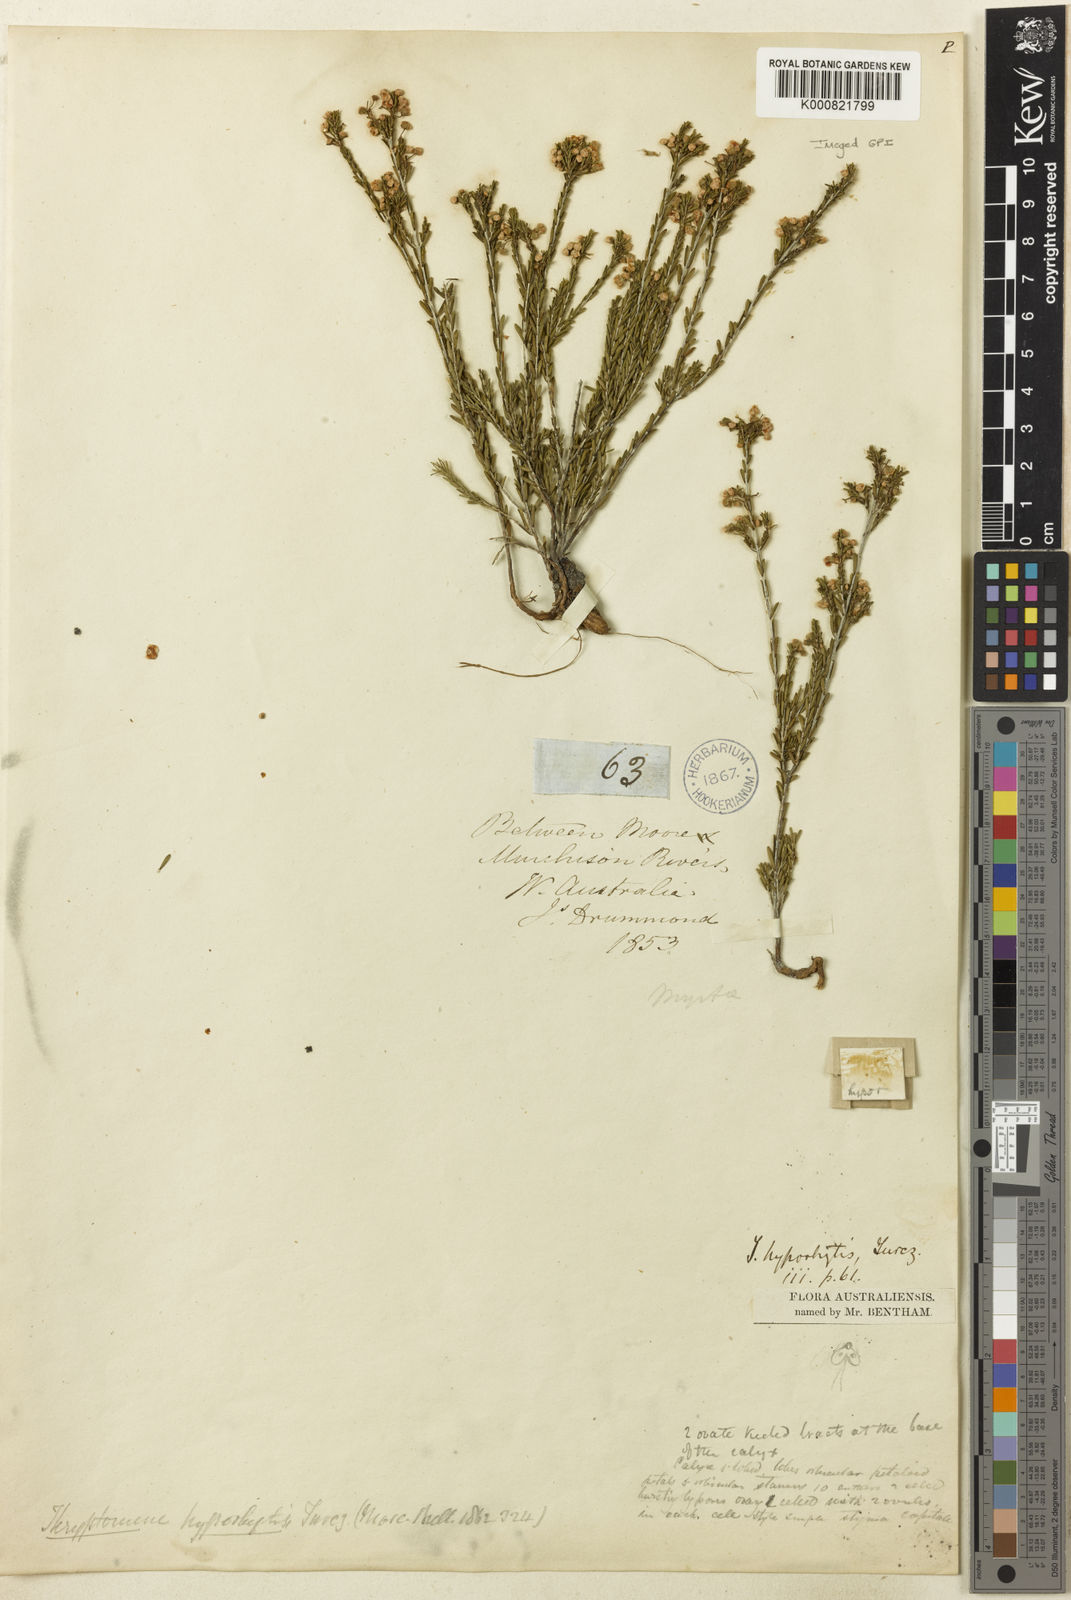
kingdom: Plantae
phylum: Tracheophyta
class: Magnoliopsida
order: Myrtales
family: Myrtaceae
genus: Thryptomene
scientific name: Thryptomene hyporhytis
